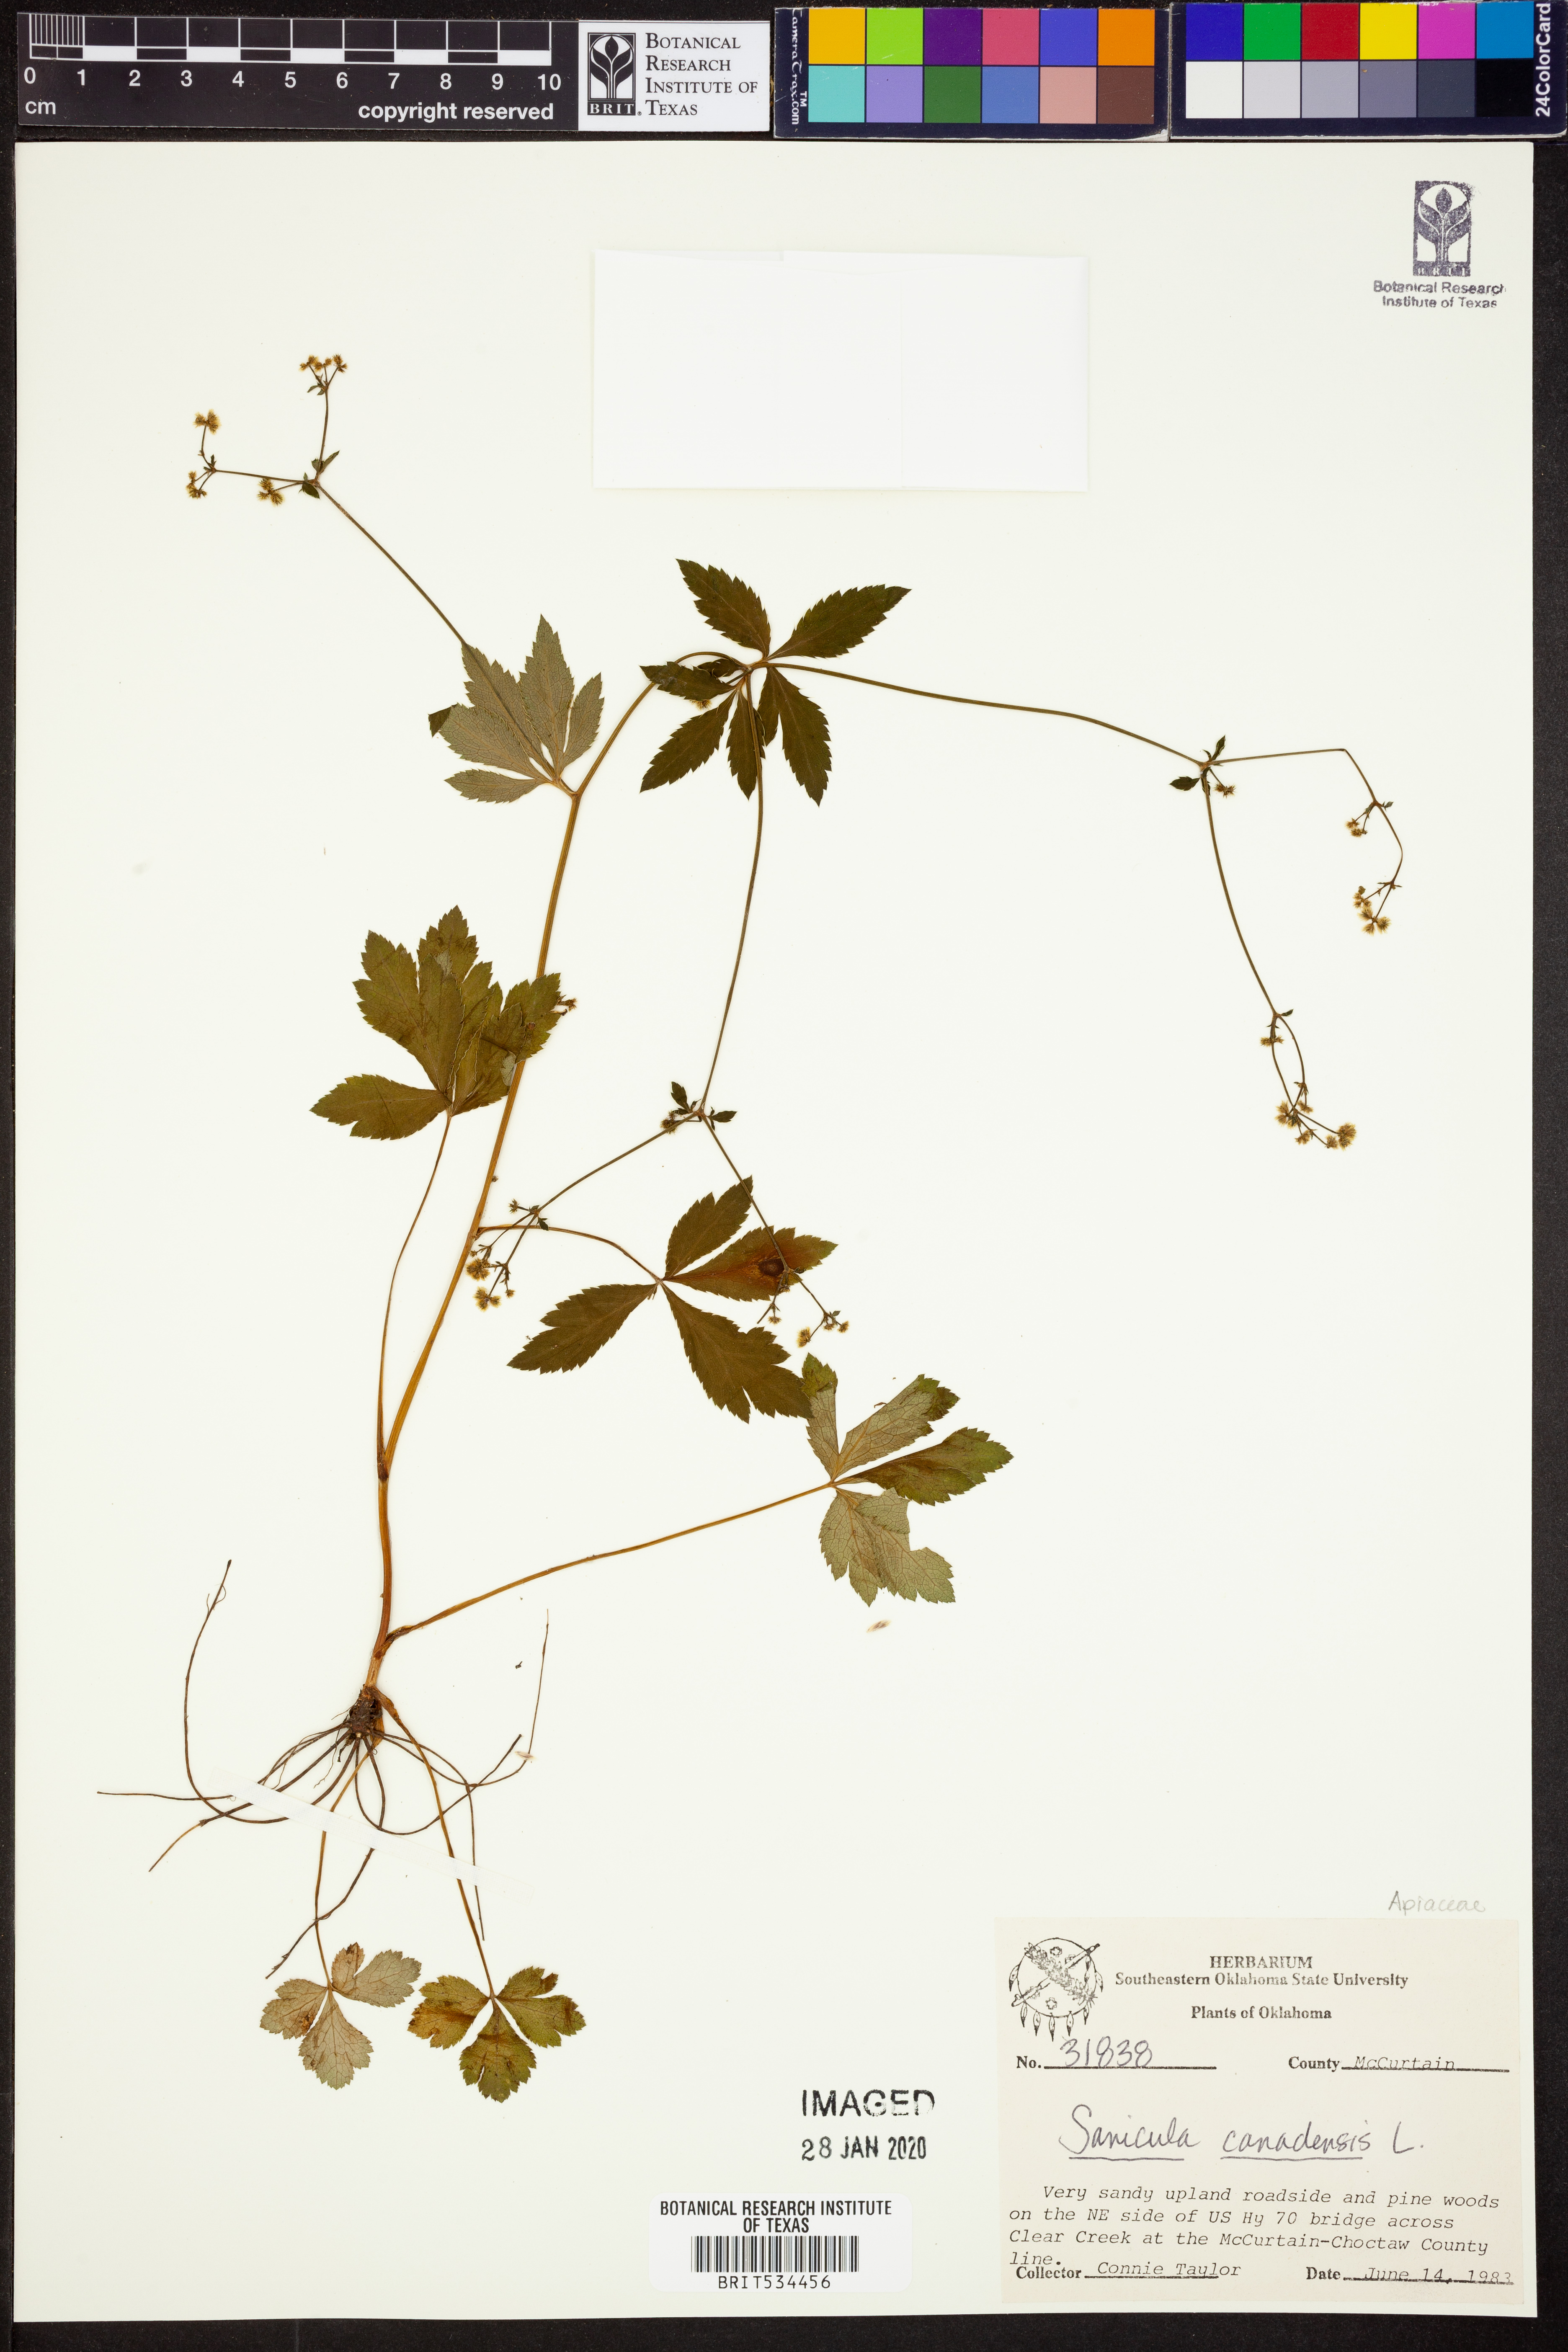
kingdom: Plantae
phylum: Tracheophyta
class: Magnoliopsida
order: Apiales
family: Apiaceae
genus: Sanicula
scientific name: Sanicula canadensis
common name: Canada sanicle
